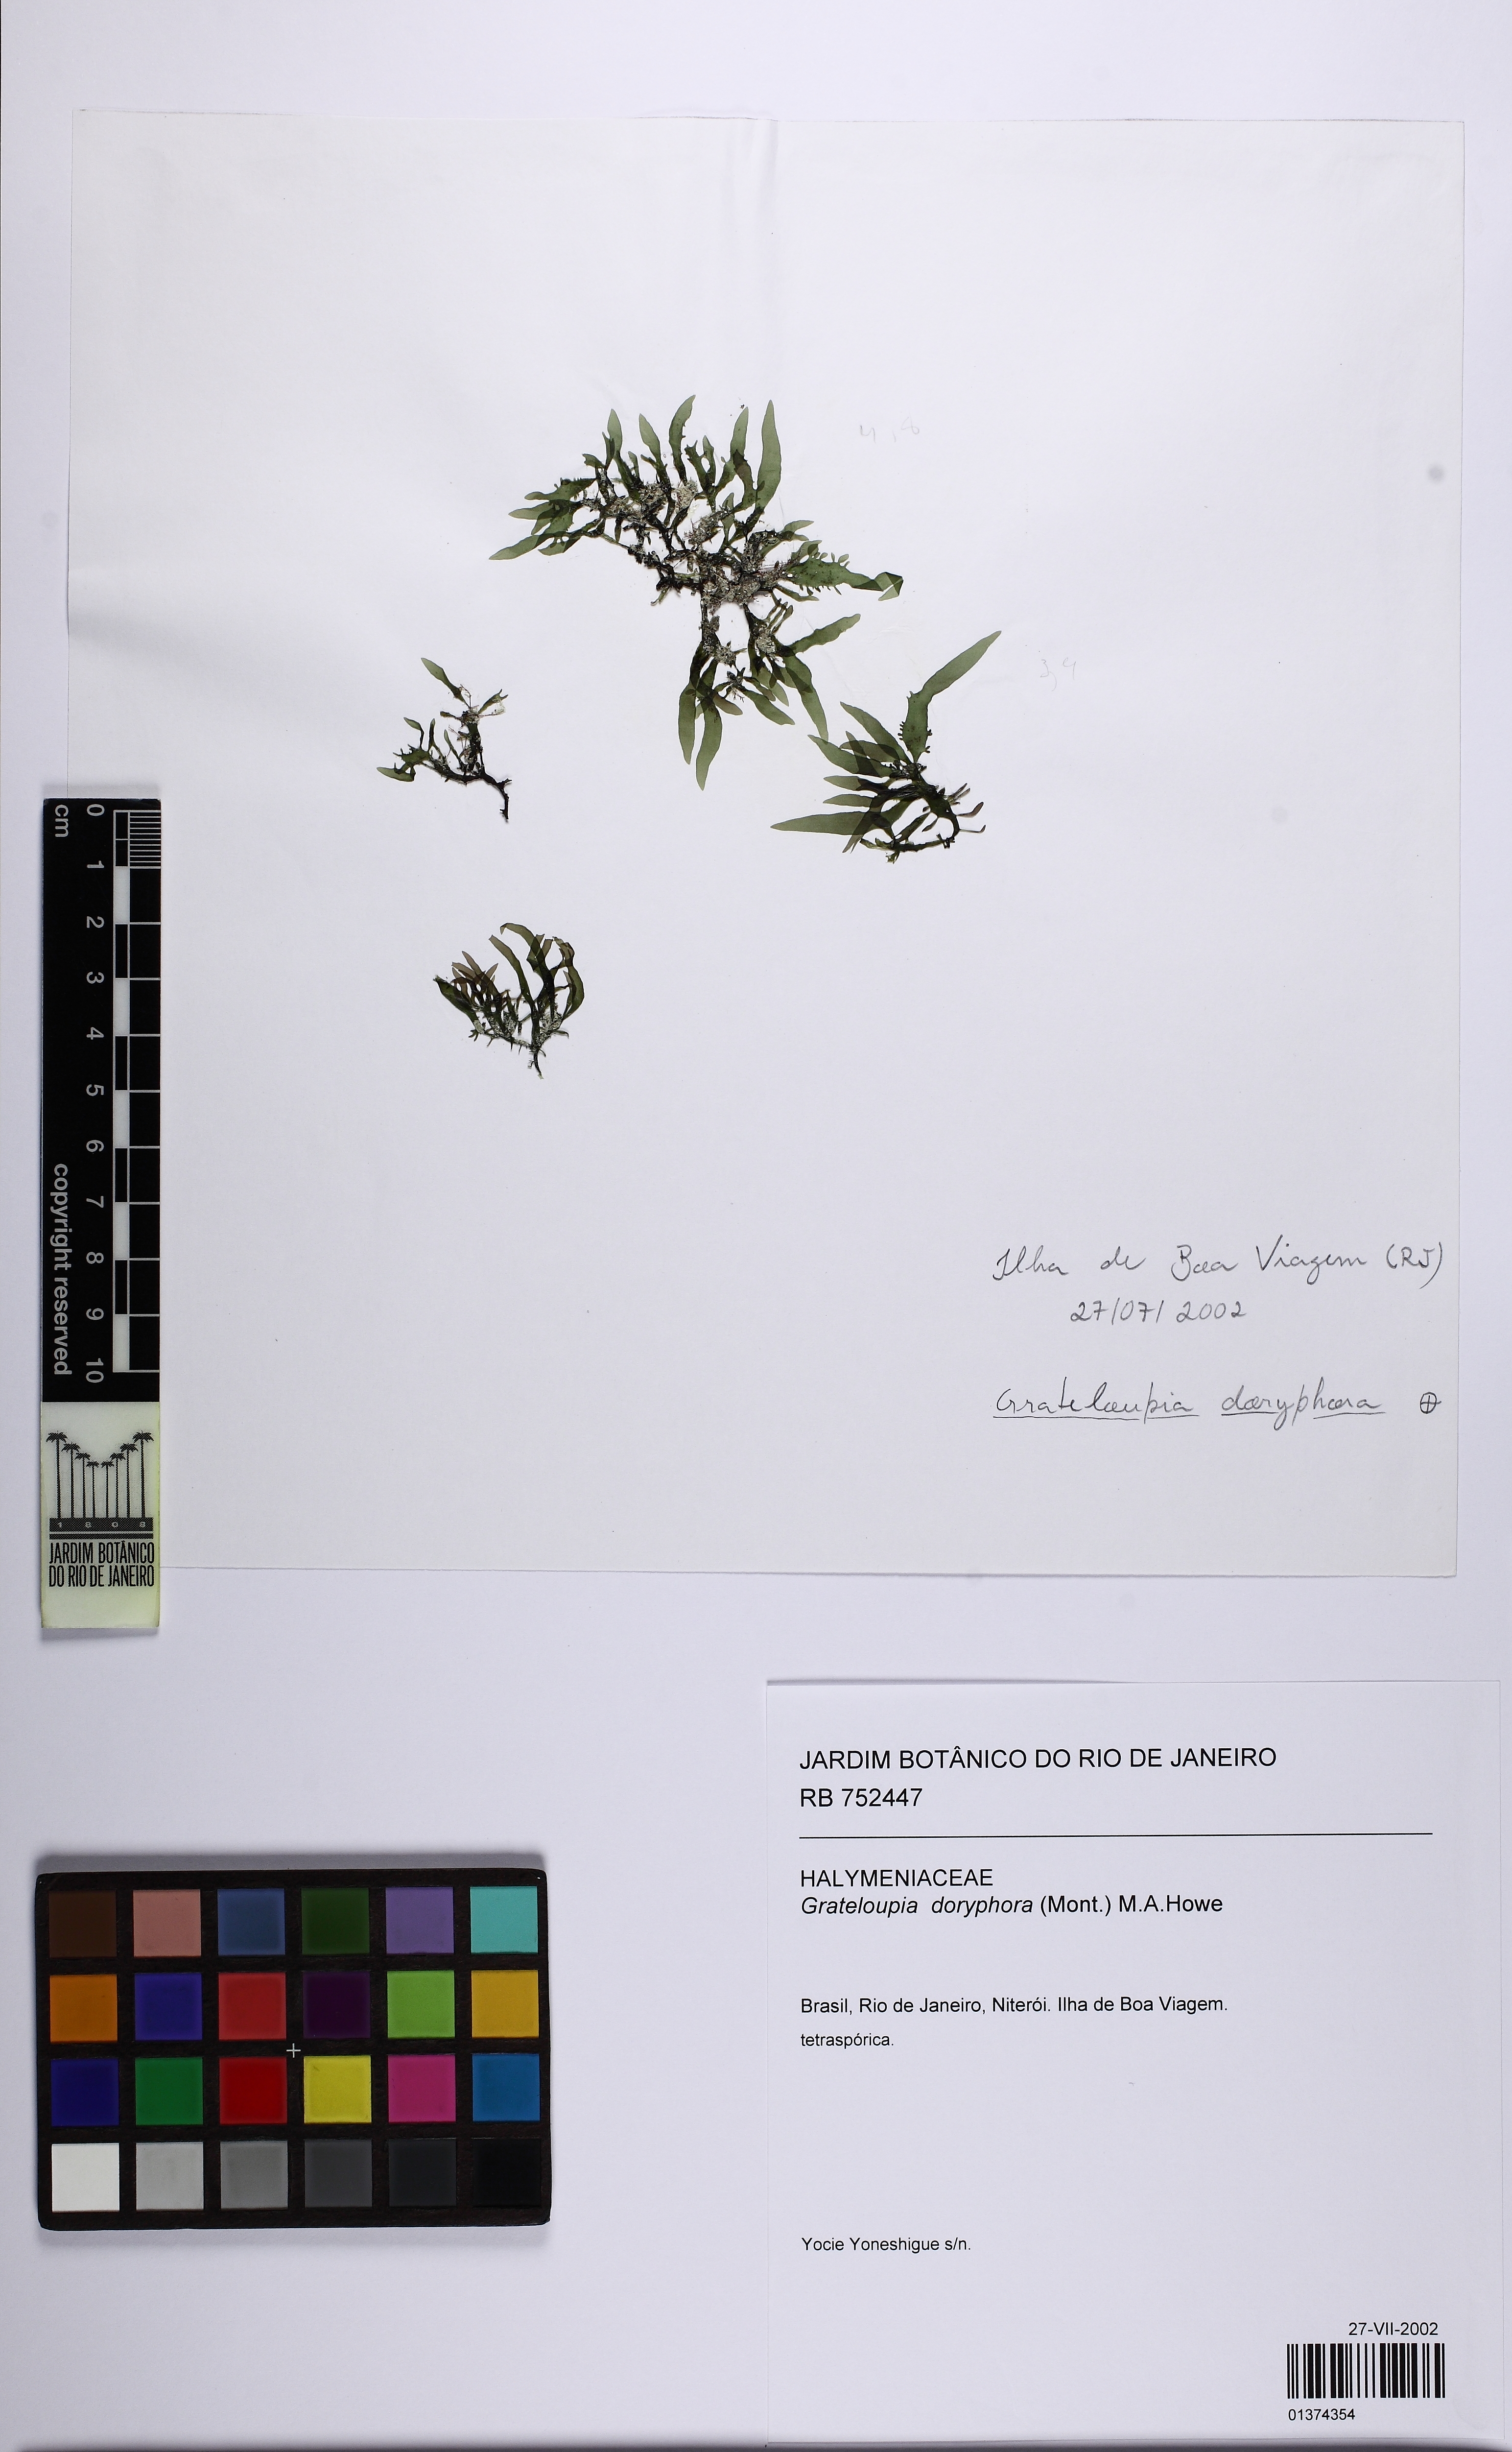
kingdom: Plantae
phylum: Rhodophyta
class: Florideophyceae
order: Halymeniales
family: Halymeniaceae
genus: Halymenia
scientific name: Halymenia Grateloupia doryphora
